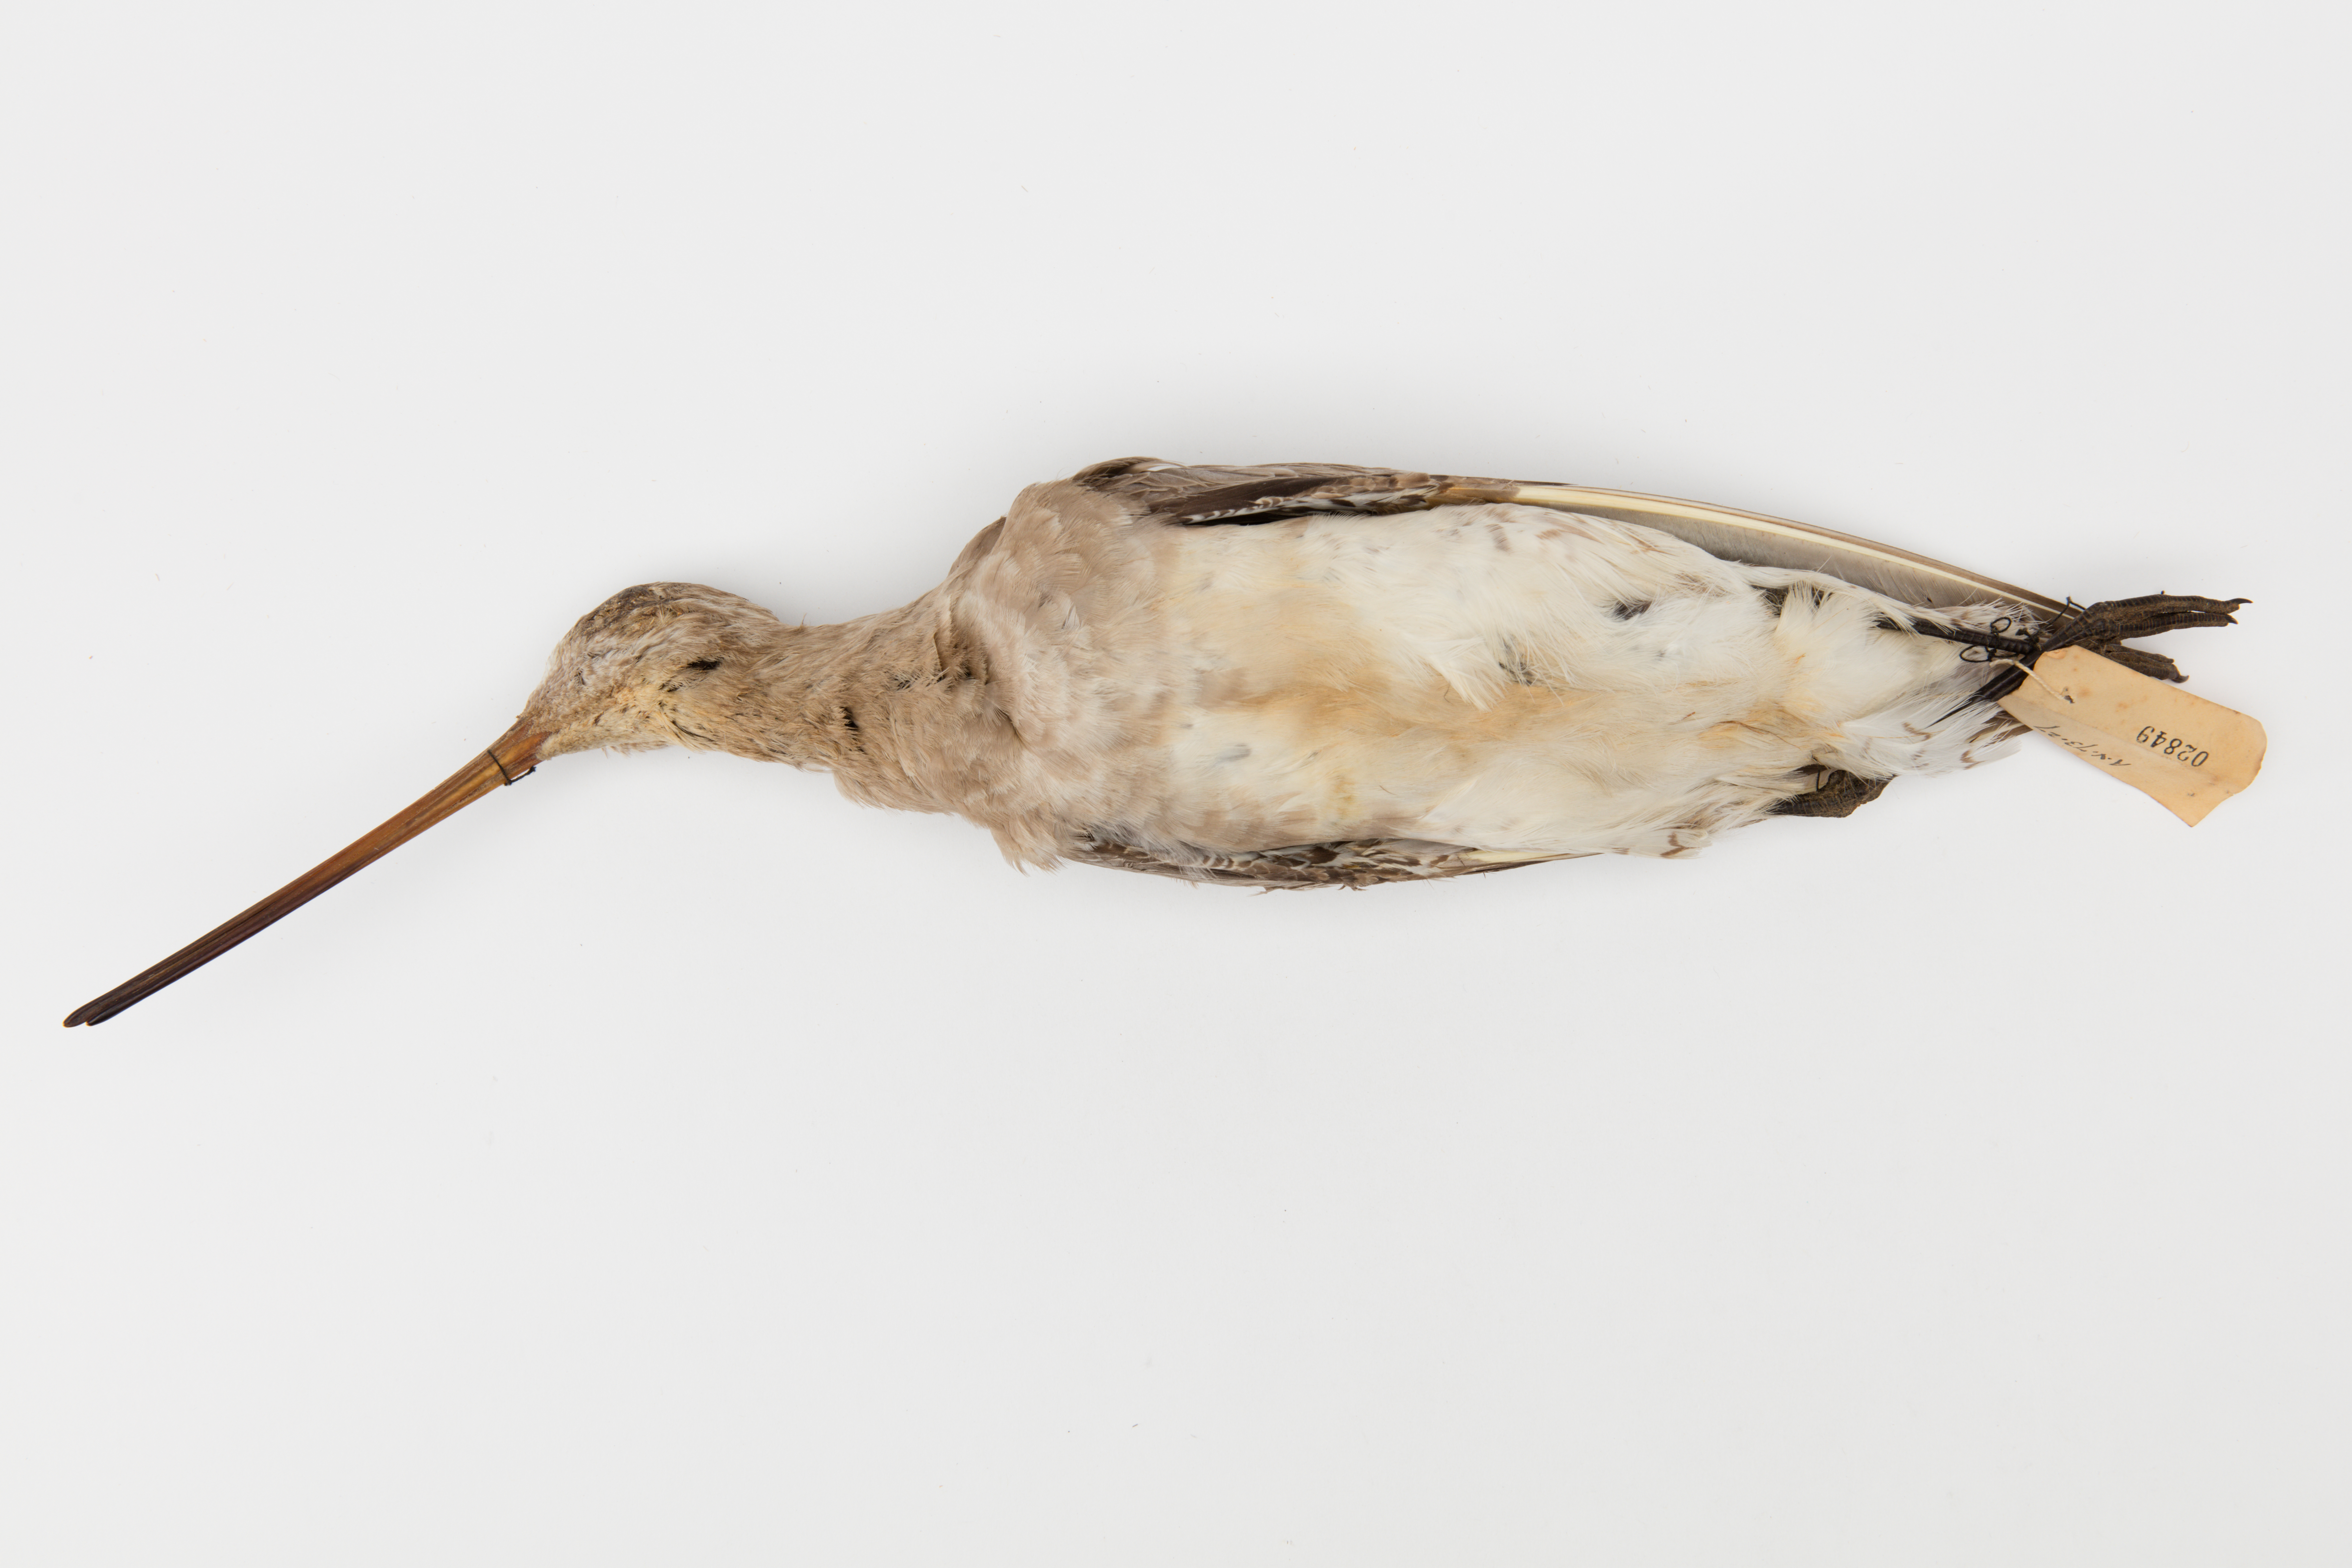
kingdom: Animalia
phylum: Chordata
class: Aves
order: Charadriiformes
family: Scolopacidae
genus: Limosa
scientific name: Limosa lapponica
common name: Bar-tailed godwit
